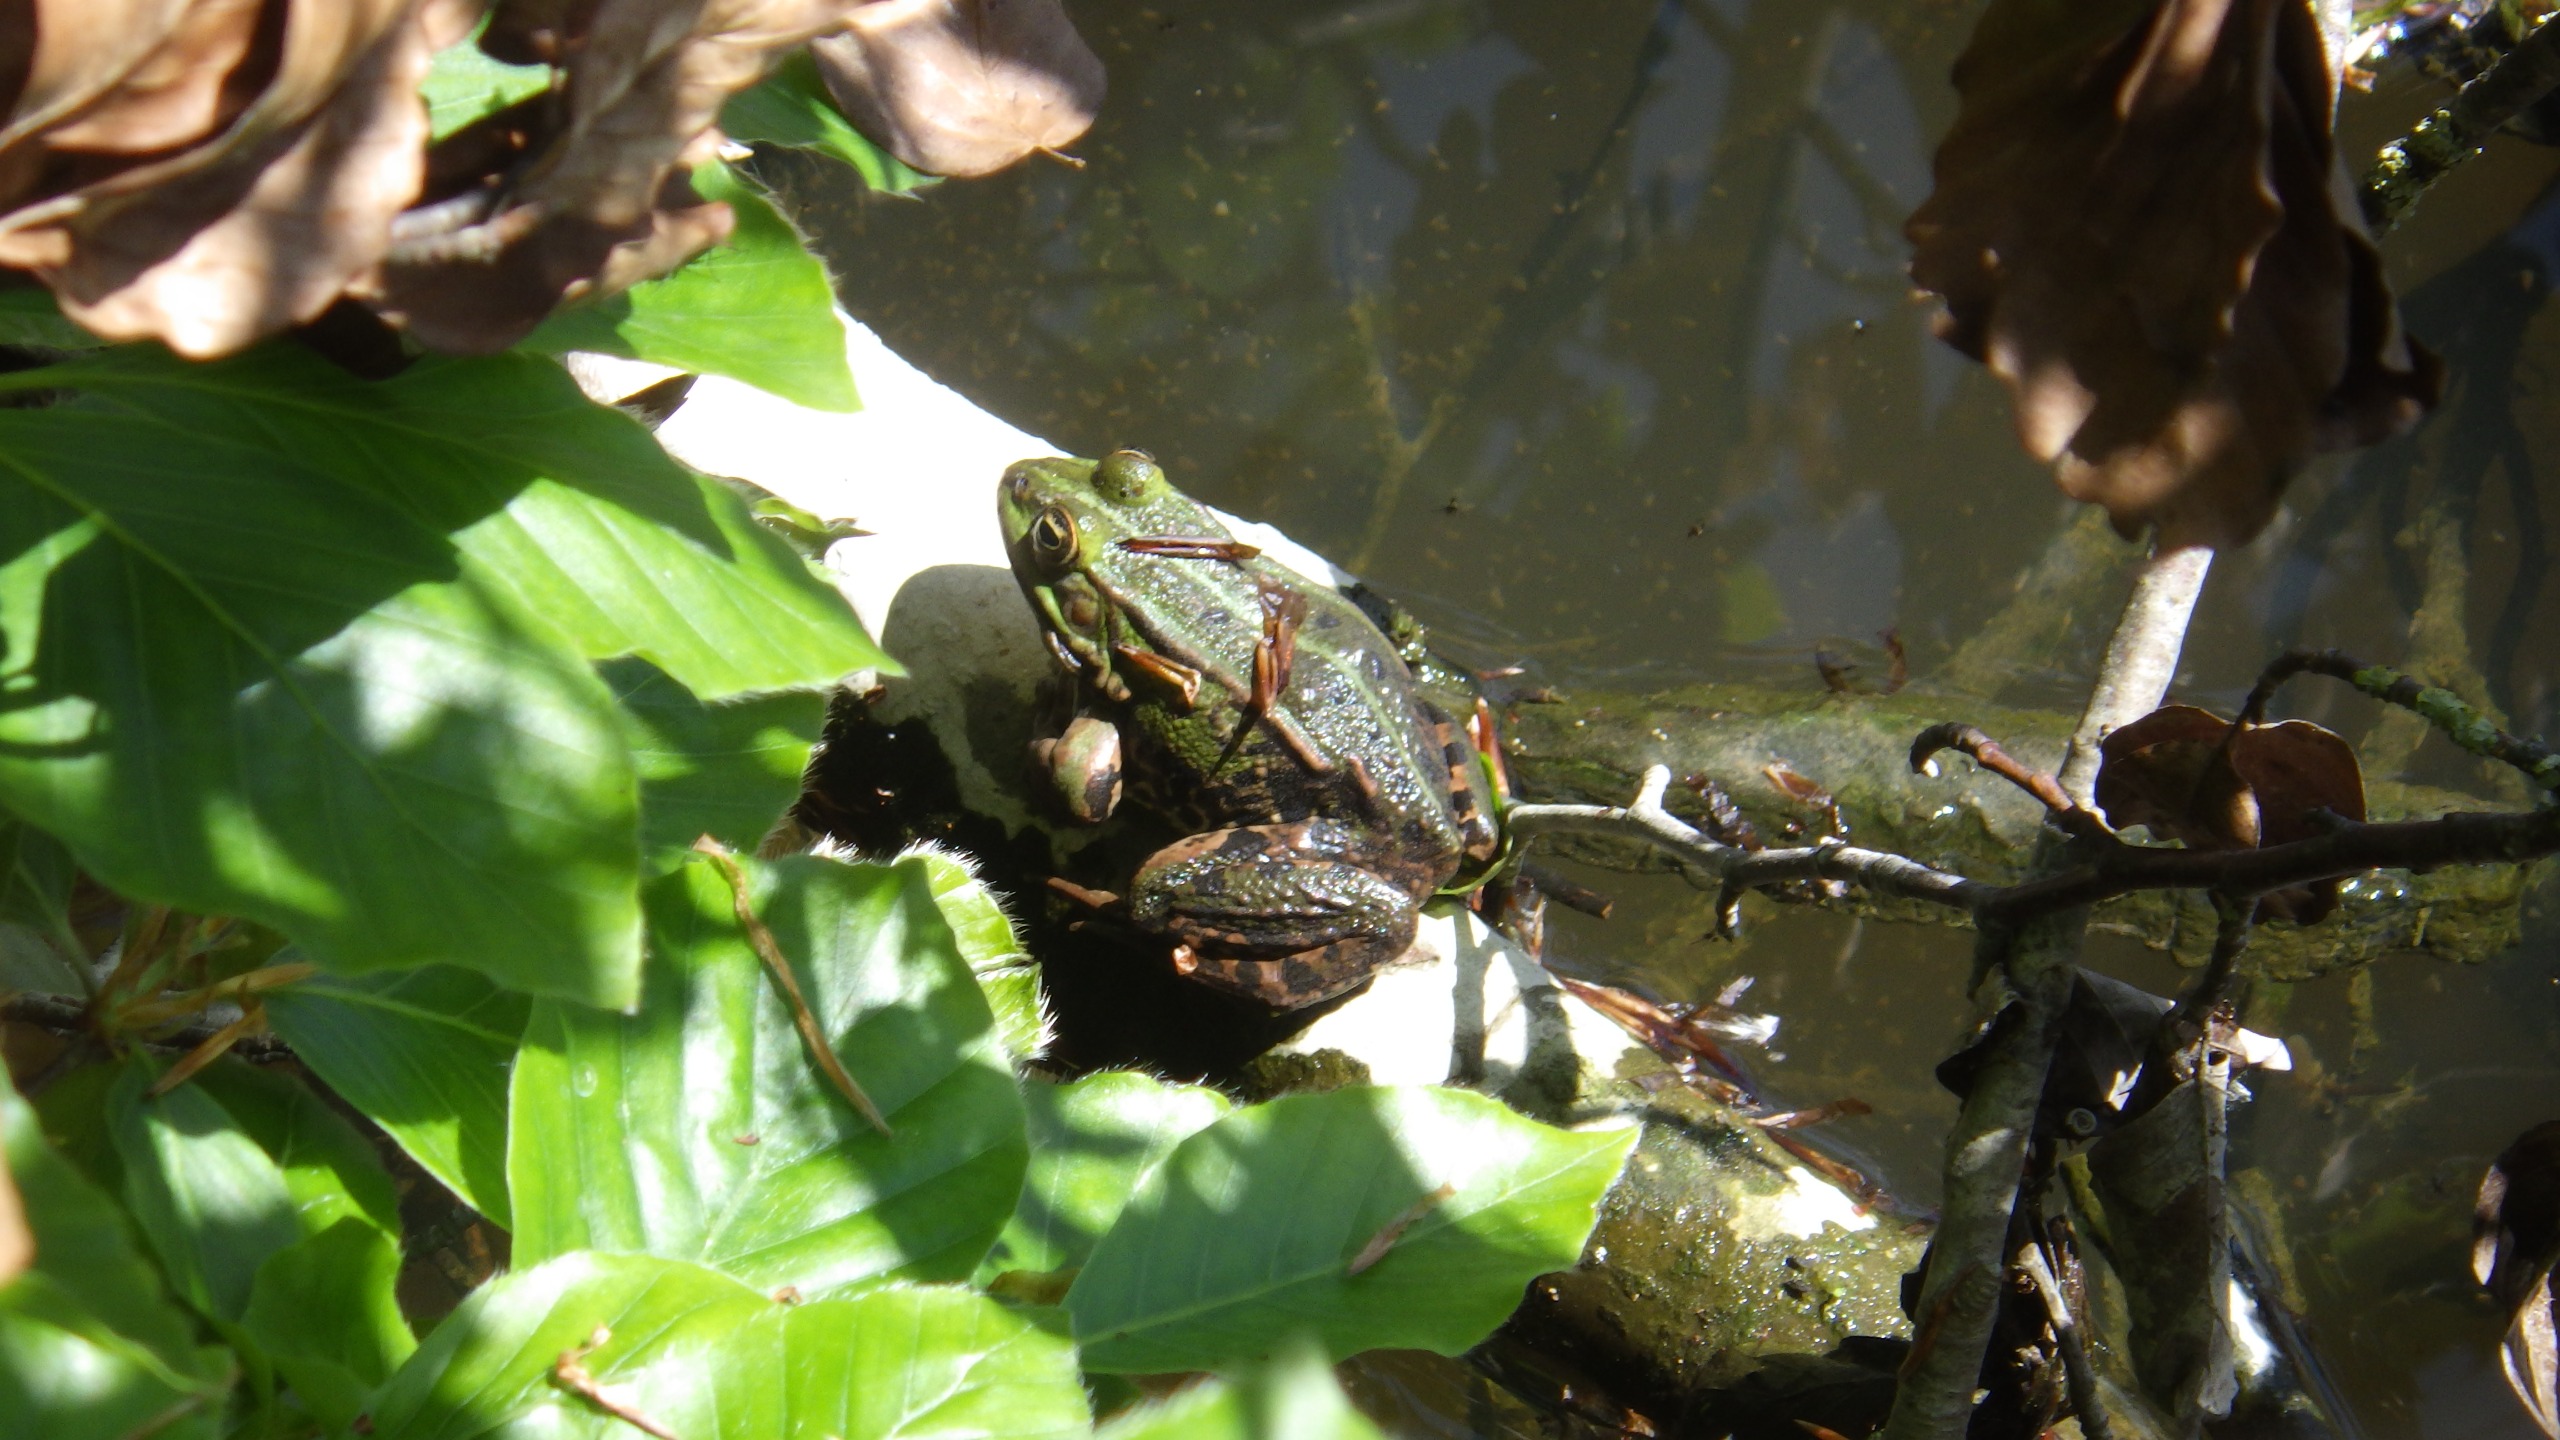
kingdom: Animalia
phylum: Chordata
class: Amphibia
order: Anura
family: Ranidae
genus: Pelophylax
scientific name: Pelophylax lessonae
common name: Grøn frø
